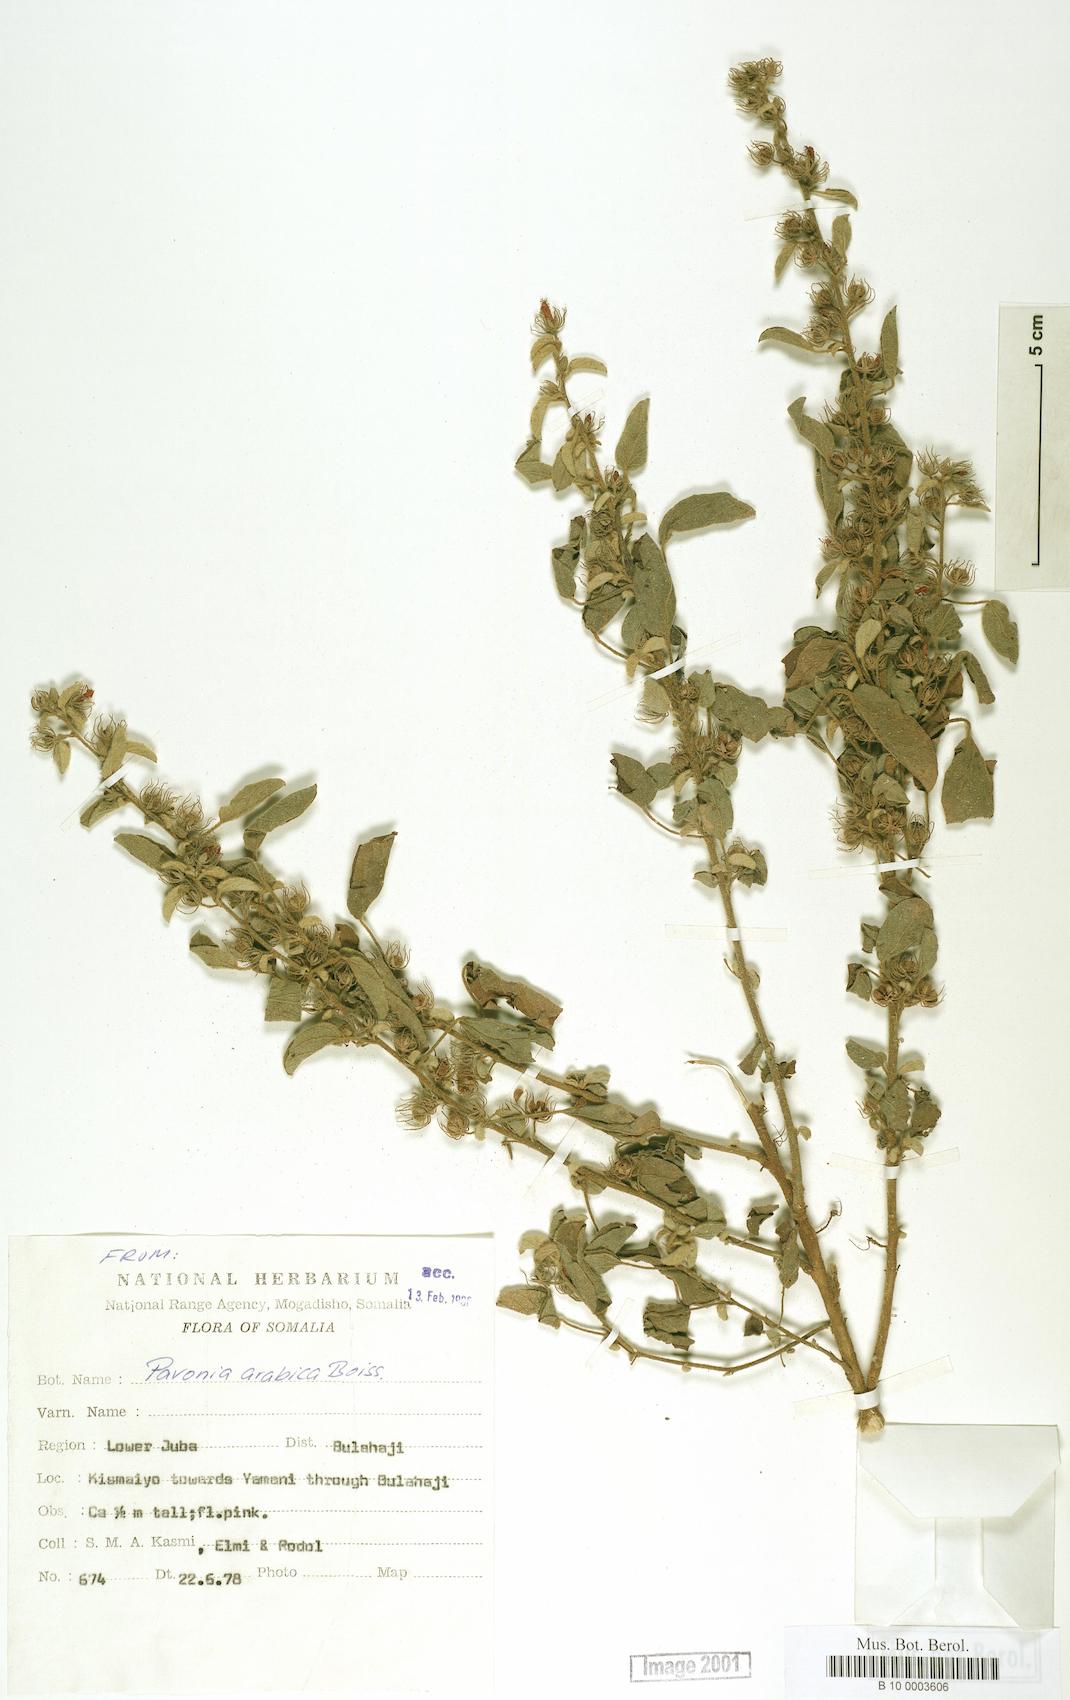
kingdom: Plantae
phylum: Tracheophyta
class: Magnoliopsida
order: Malvales
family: Malvaceae
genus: Pavonia
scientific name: Pavonia arabica
